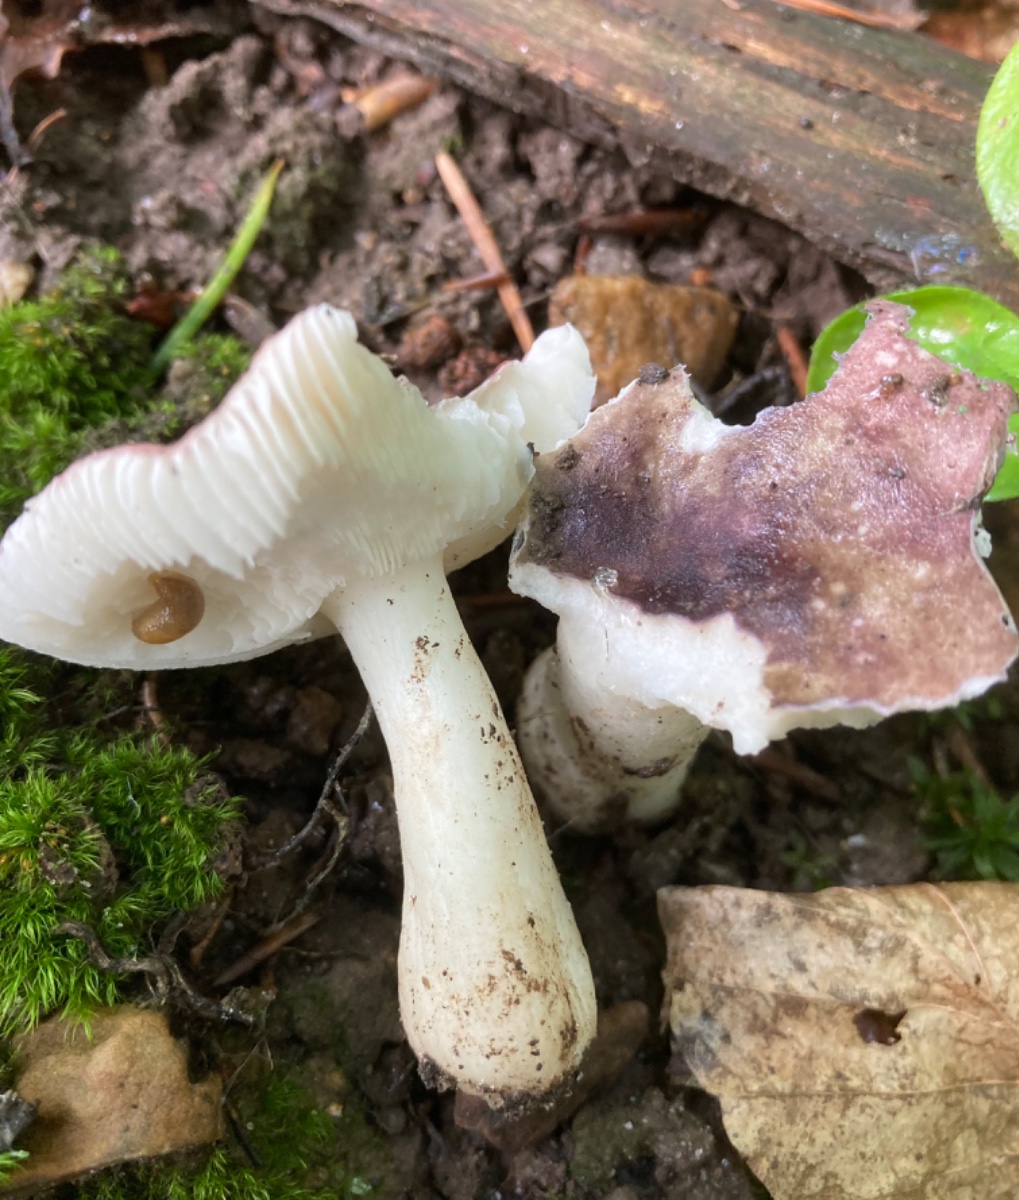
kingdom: Fungi
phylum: Basidiomycota
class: Agaricomycetes
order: Russulales
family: Russulaceae
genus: Russula
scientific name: Russula
